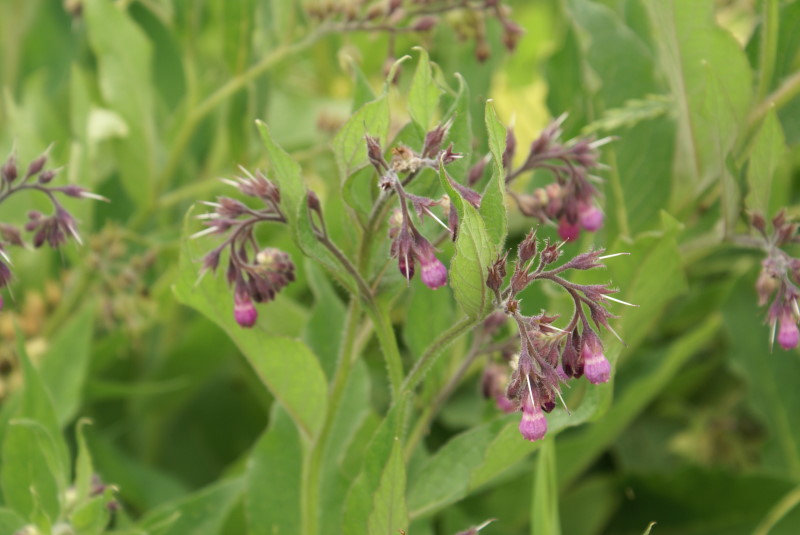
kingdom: Plantae
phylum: Tracheophyta
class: Magnoliopsida
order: Boraginales
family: Boraginaceae
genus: Symphytum
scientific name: Symphytum officinale
